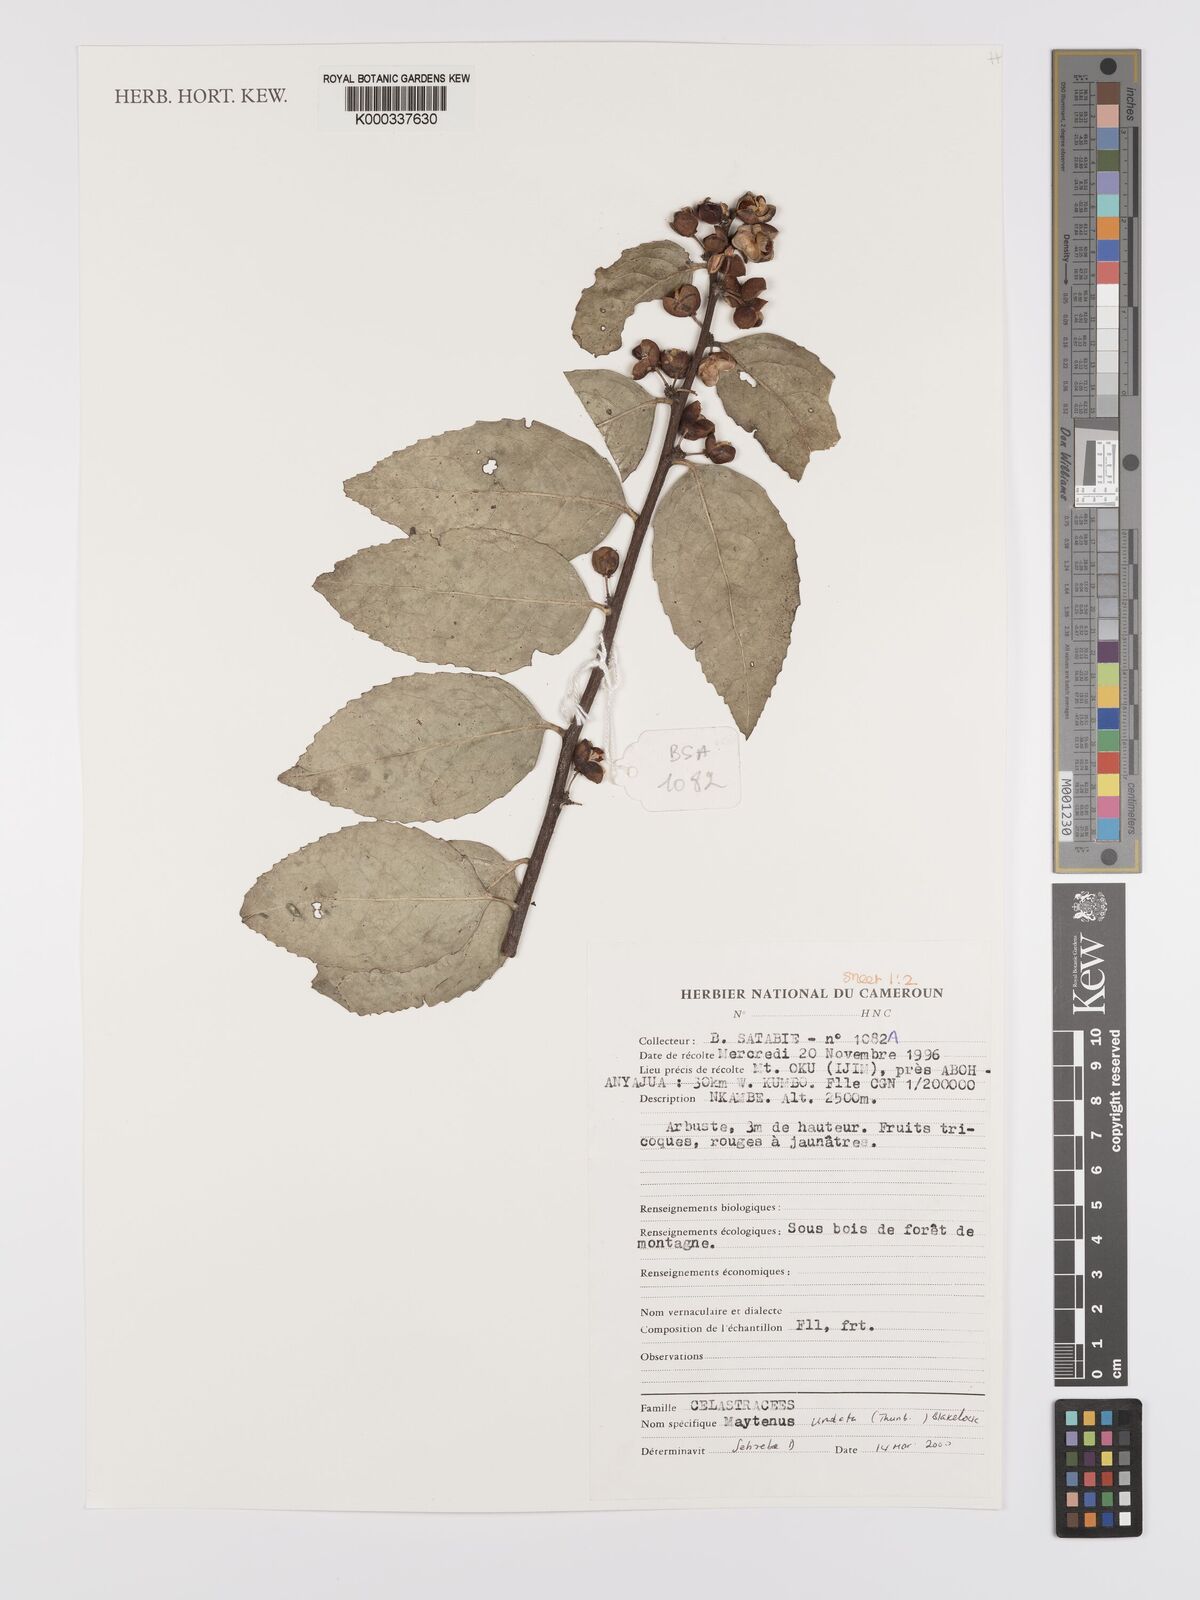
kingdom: Plantae
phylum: Tracheophyta
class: Magnoliopsida
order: Celastrales
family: Celastraceae
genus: Gymnosporia
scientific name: Gymnosporia undata
